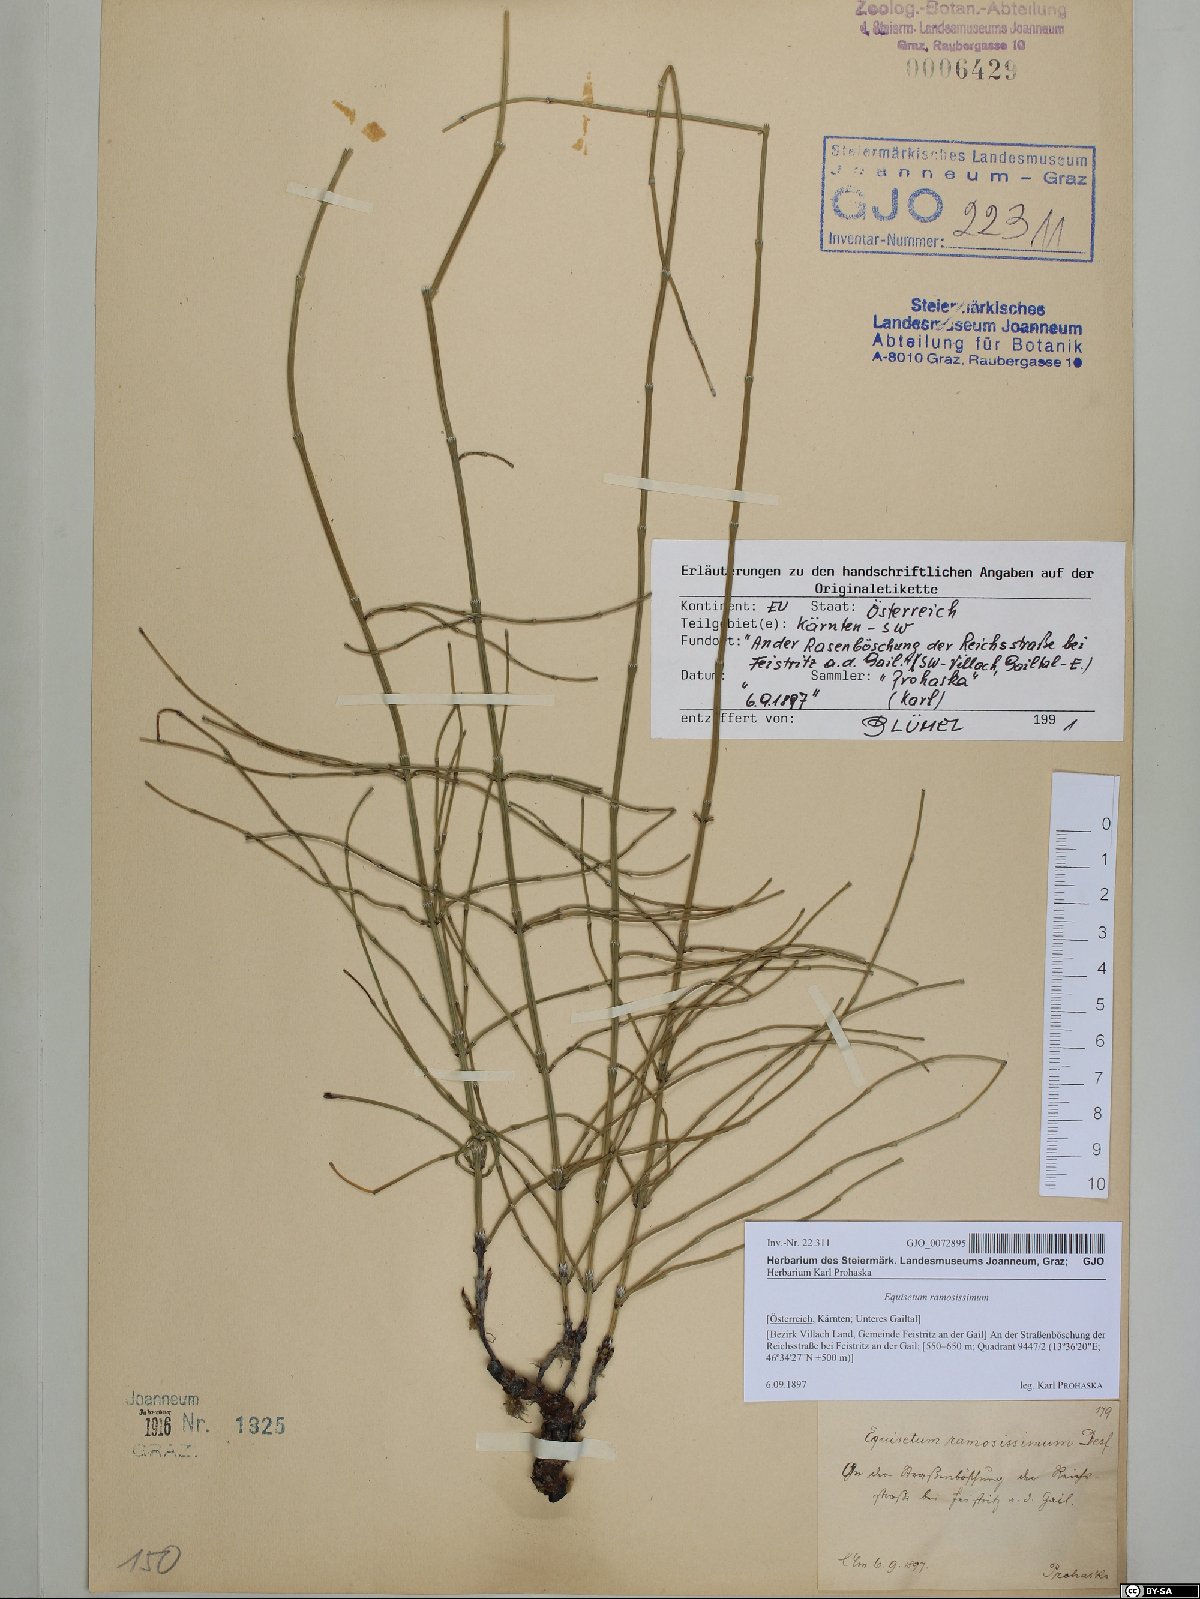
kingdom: Plantae
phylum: Tracheophyta
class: Polypodiopsida
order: Equisetales
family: Equisetaceae
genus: Equisetum
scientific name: Equisetum ramosissimum
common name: Branched horsetail
